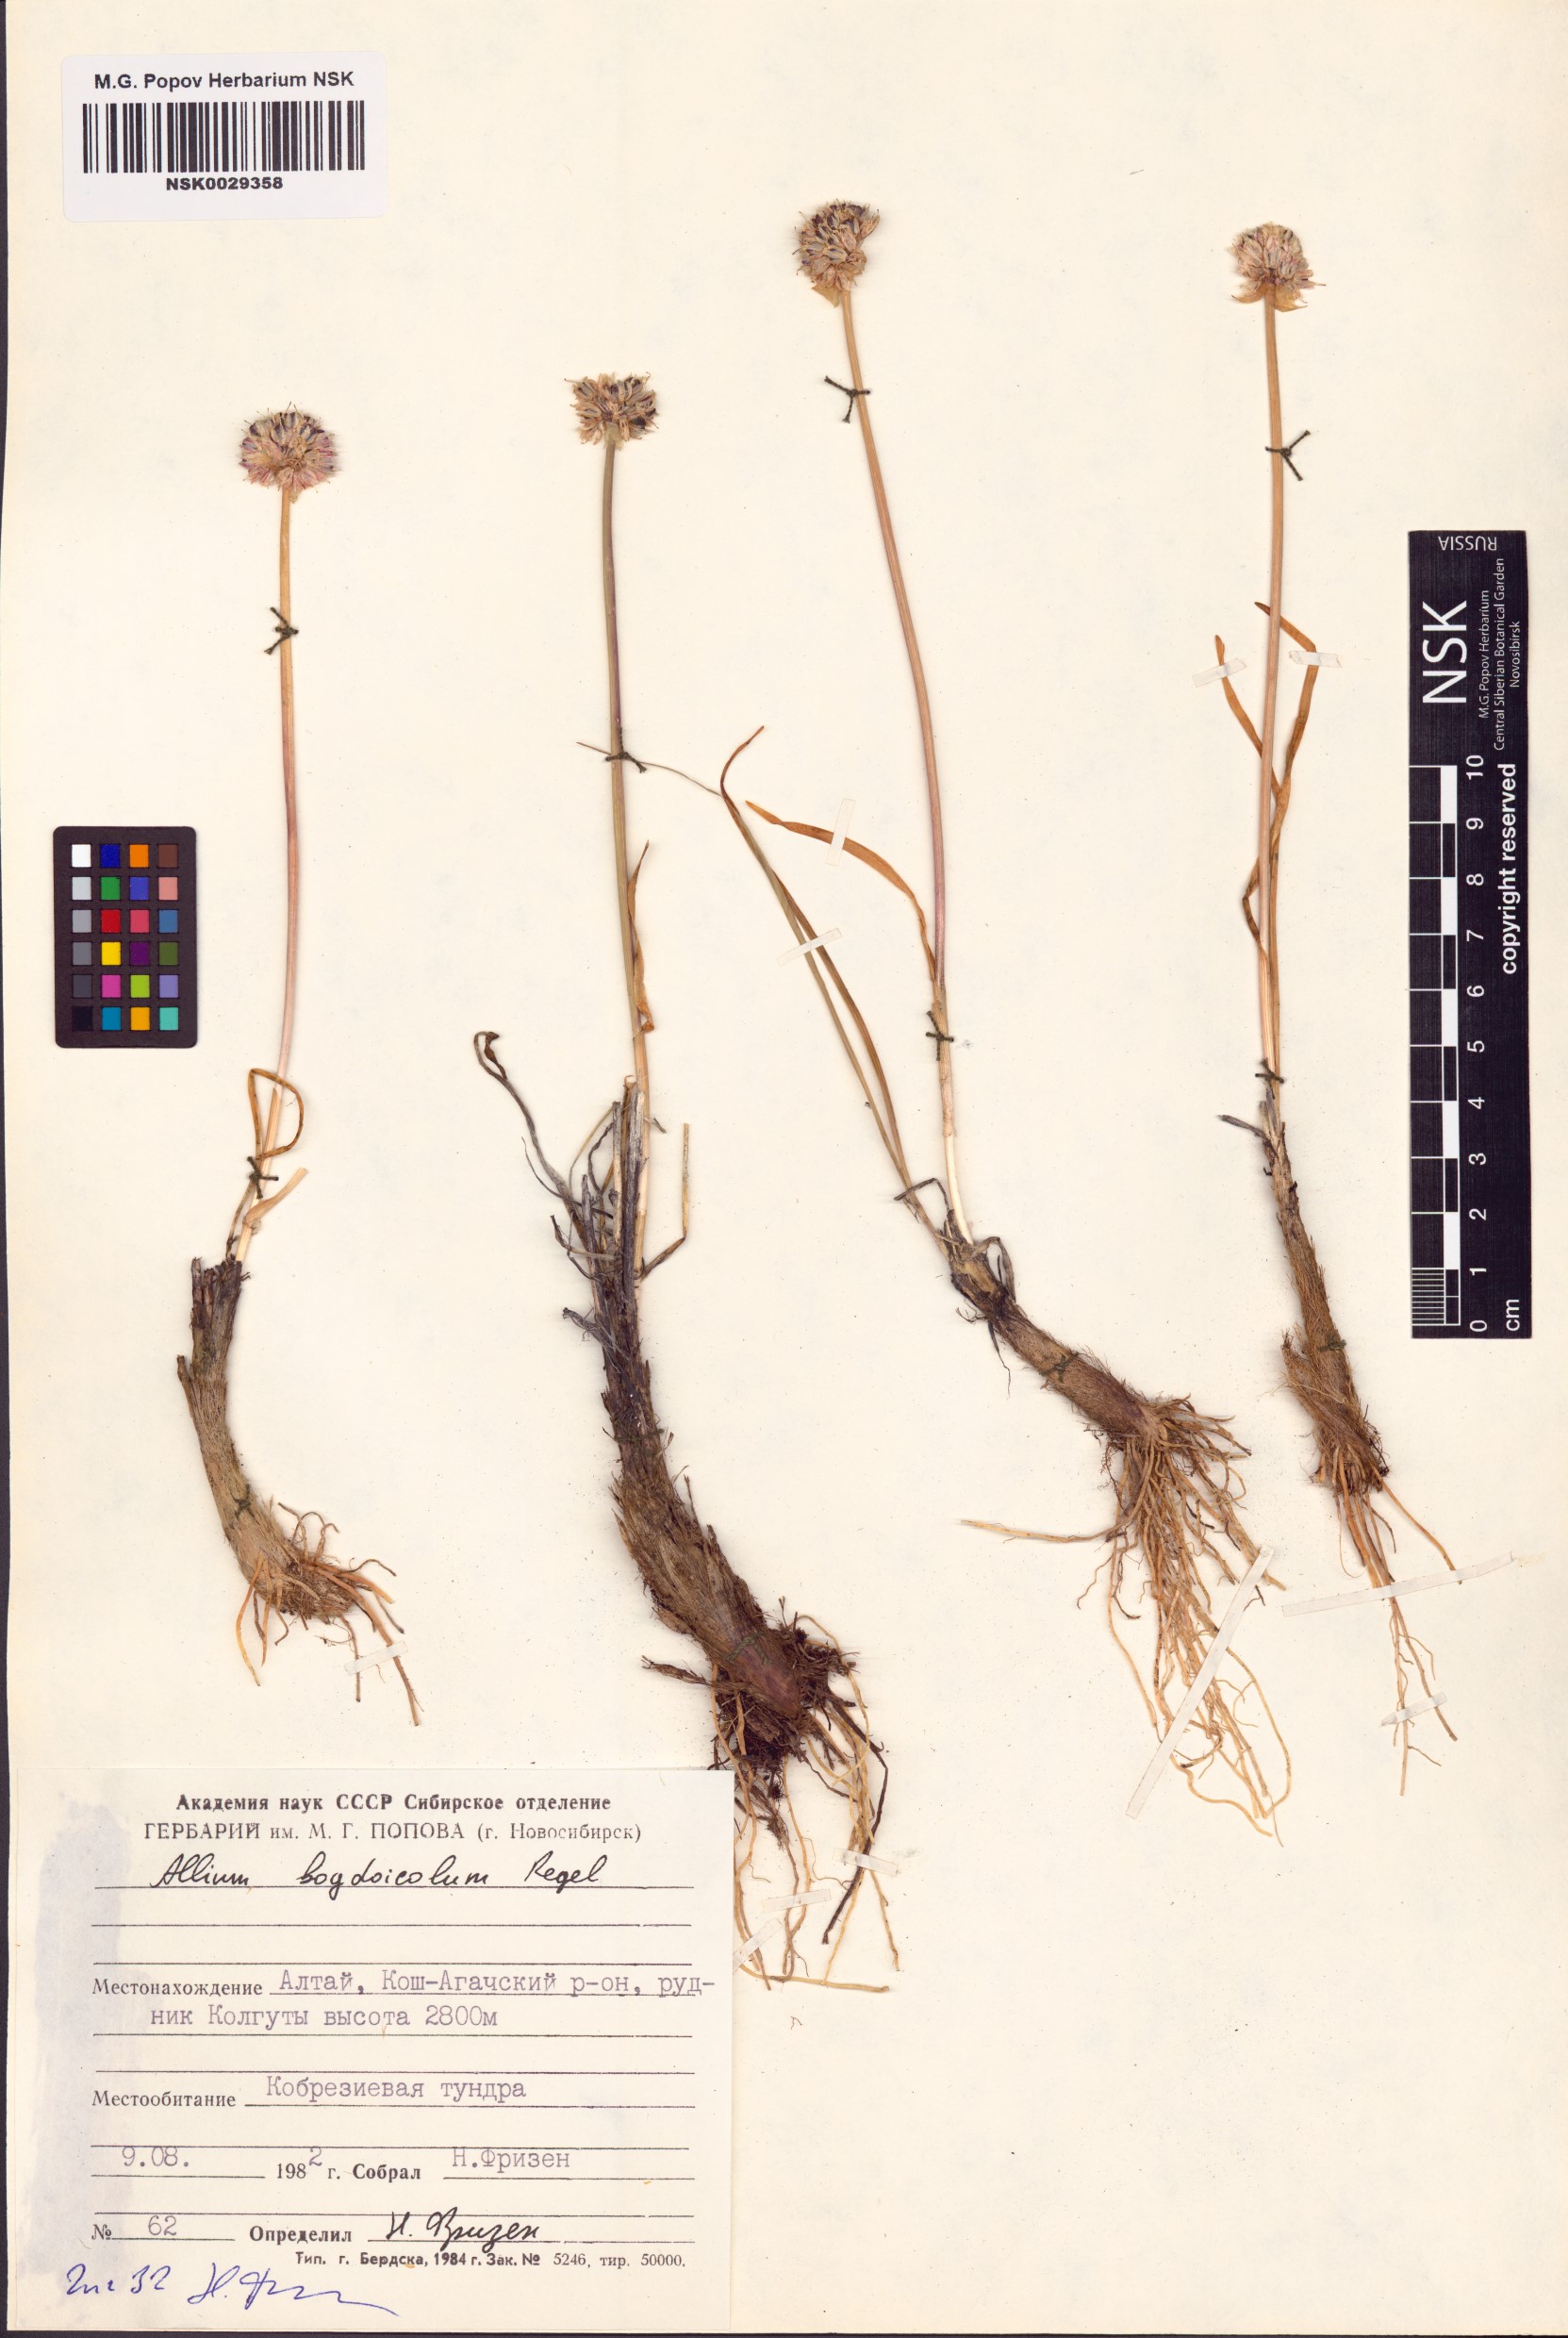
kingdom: Plantae
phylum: Tracheophyta
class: Liliopsida
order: Asparagales
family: Amaryllidaceae
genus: Allium
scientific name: Allium schrenkii
